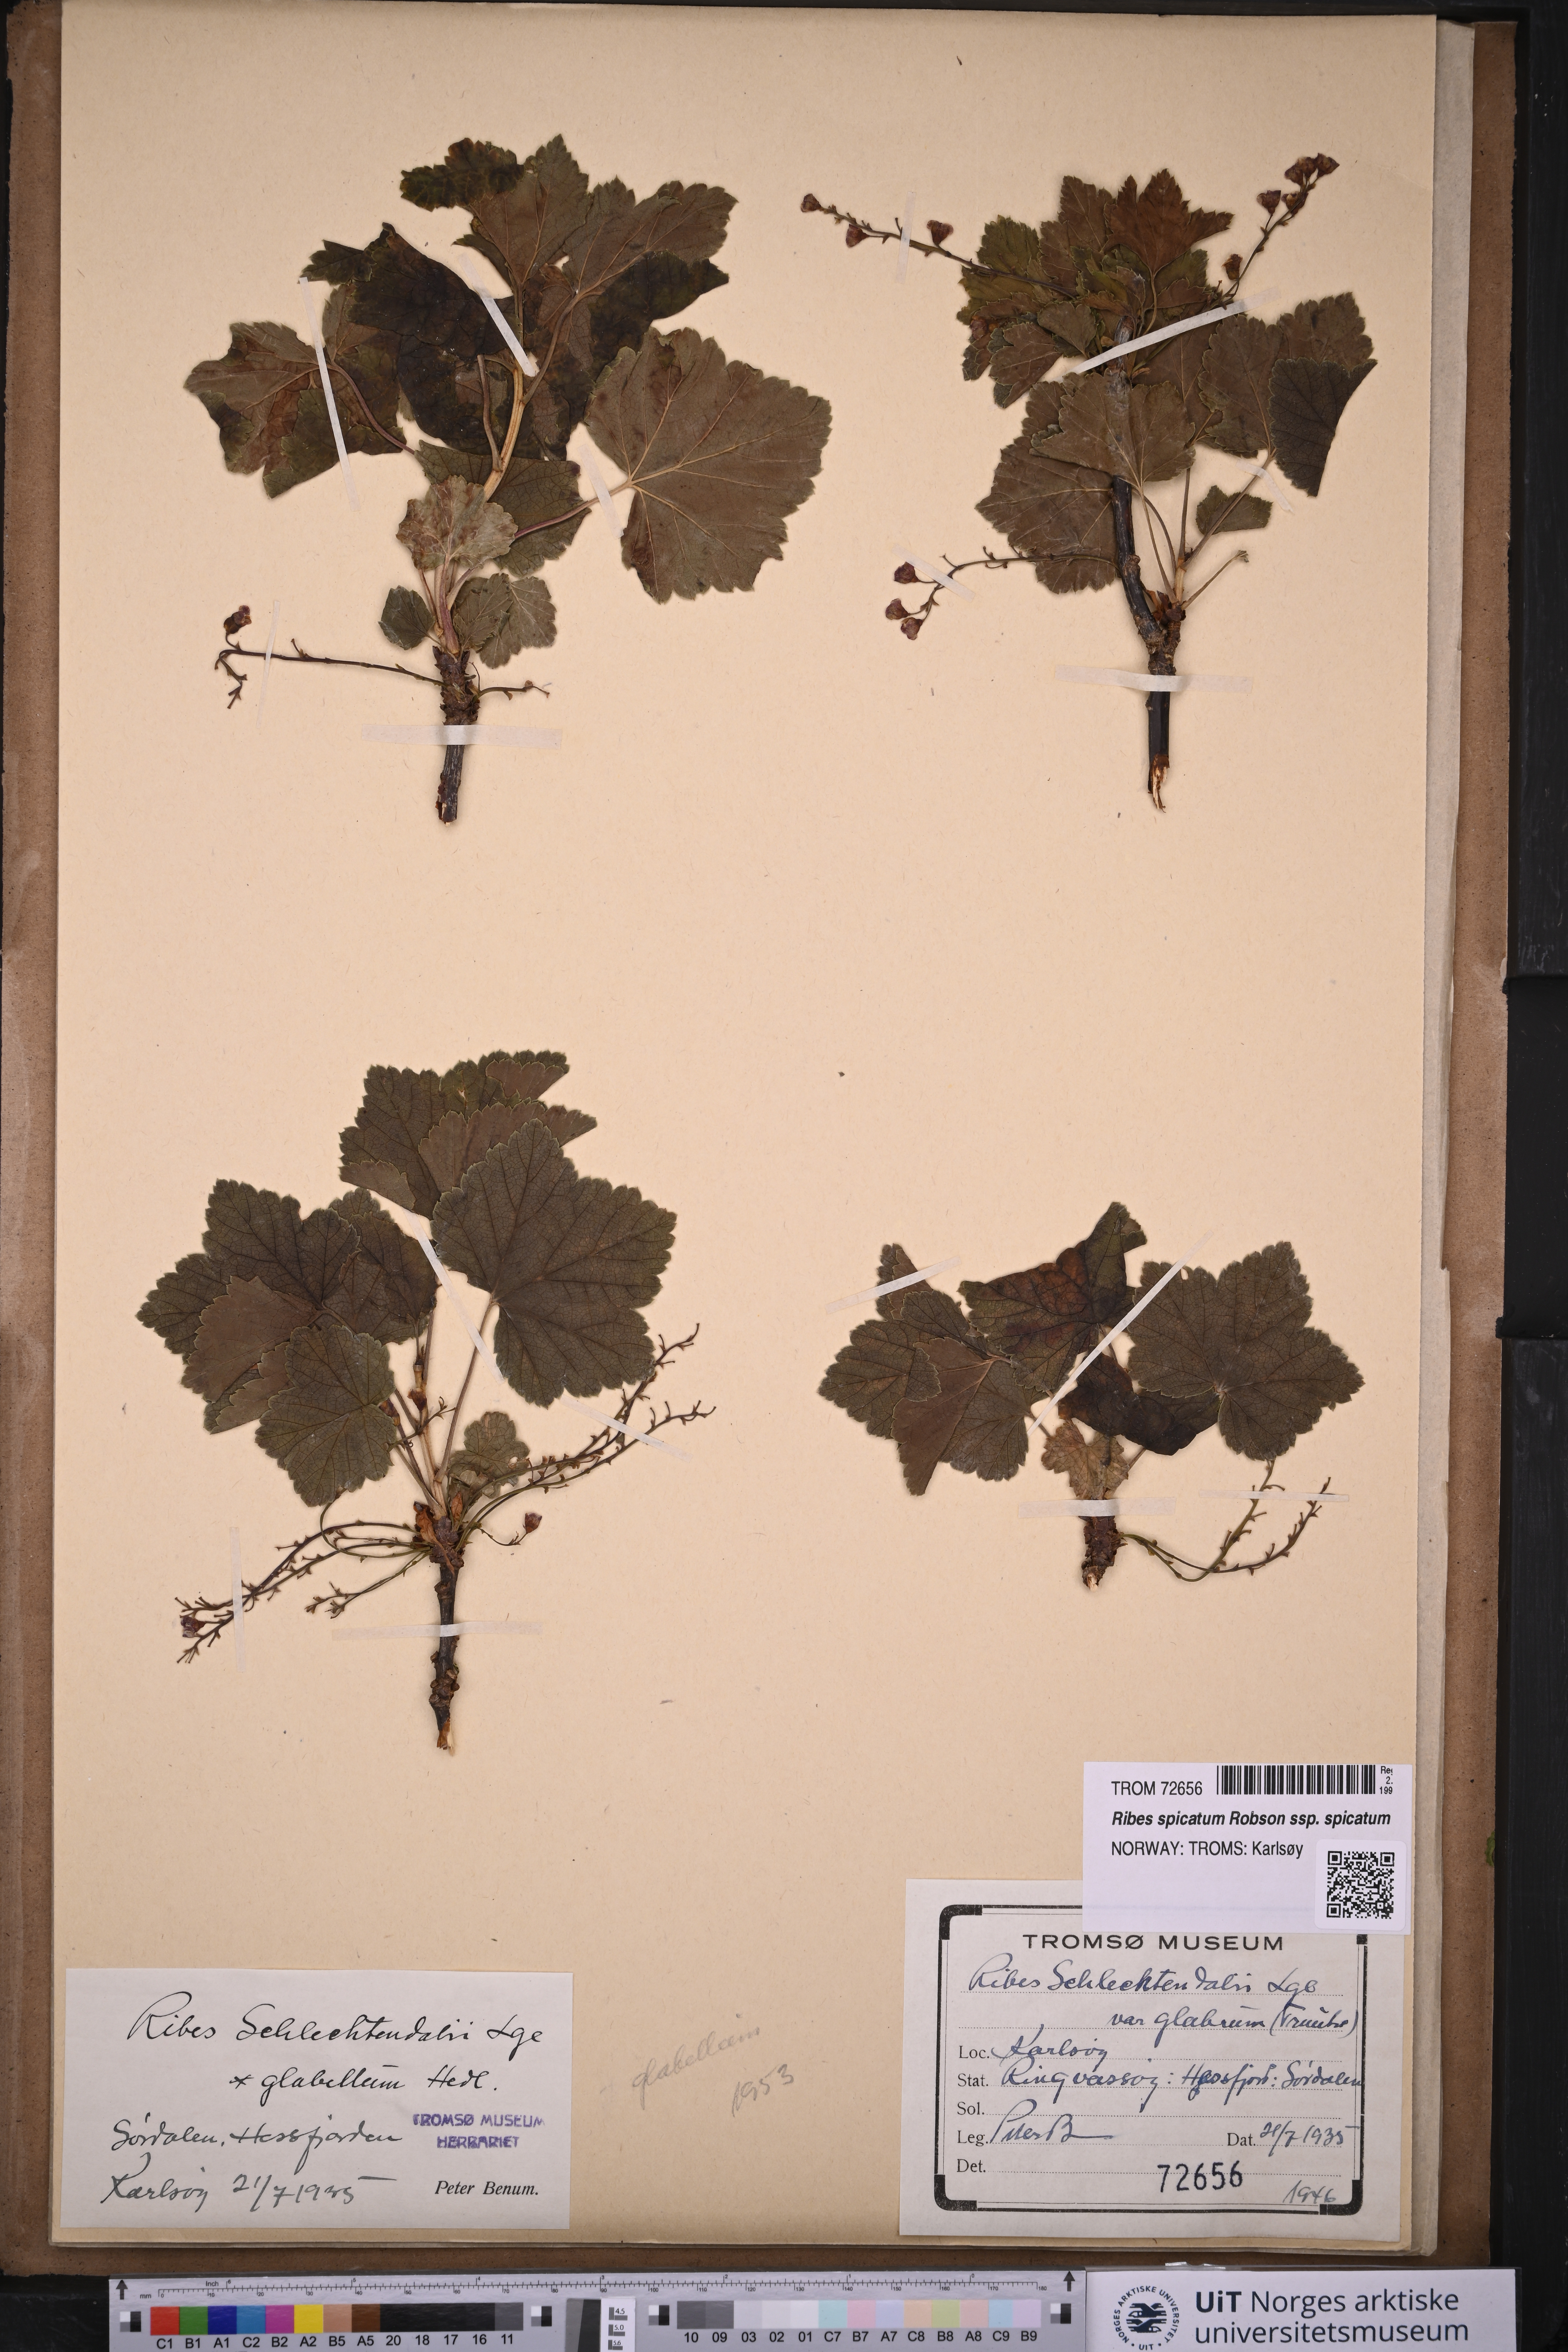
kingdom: Plantae
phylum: Tracheophyta
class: Magnoliopsida
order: Saxifragales
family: Grossulariaceae
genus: Ribes
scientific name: Ribes spicatum
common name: Downy currant
